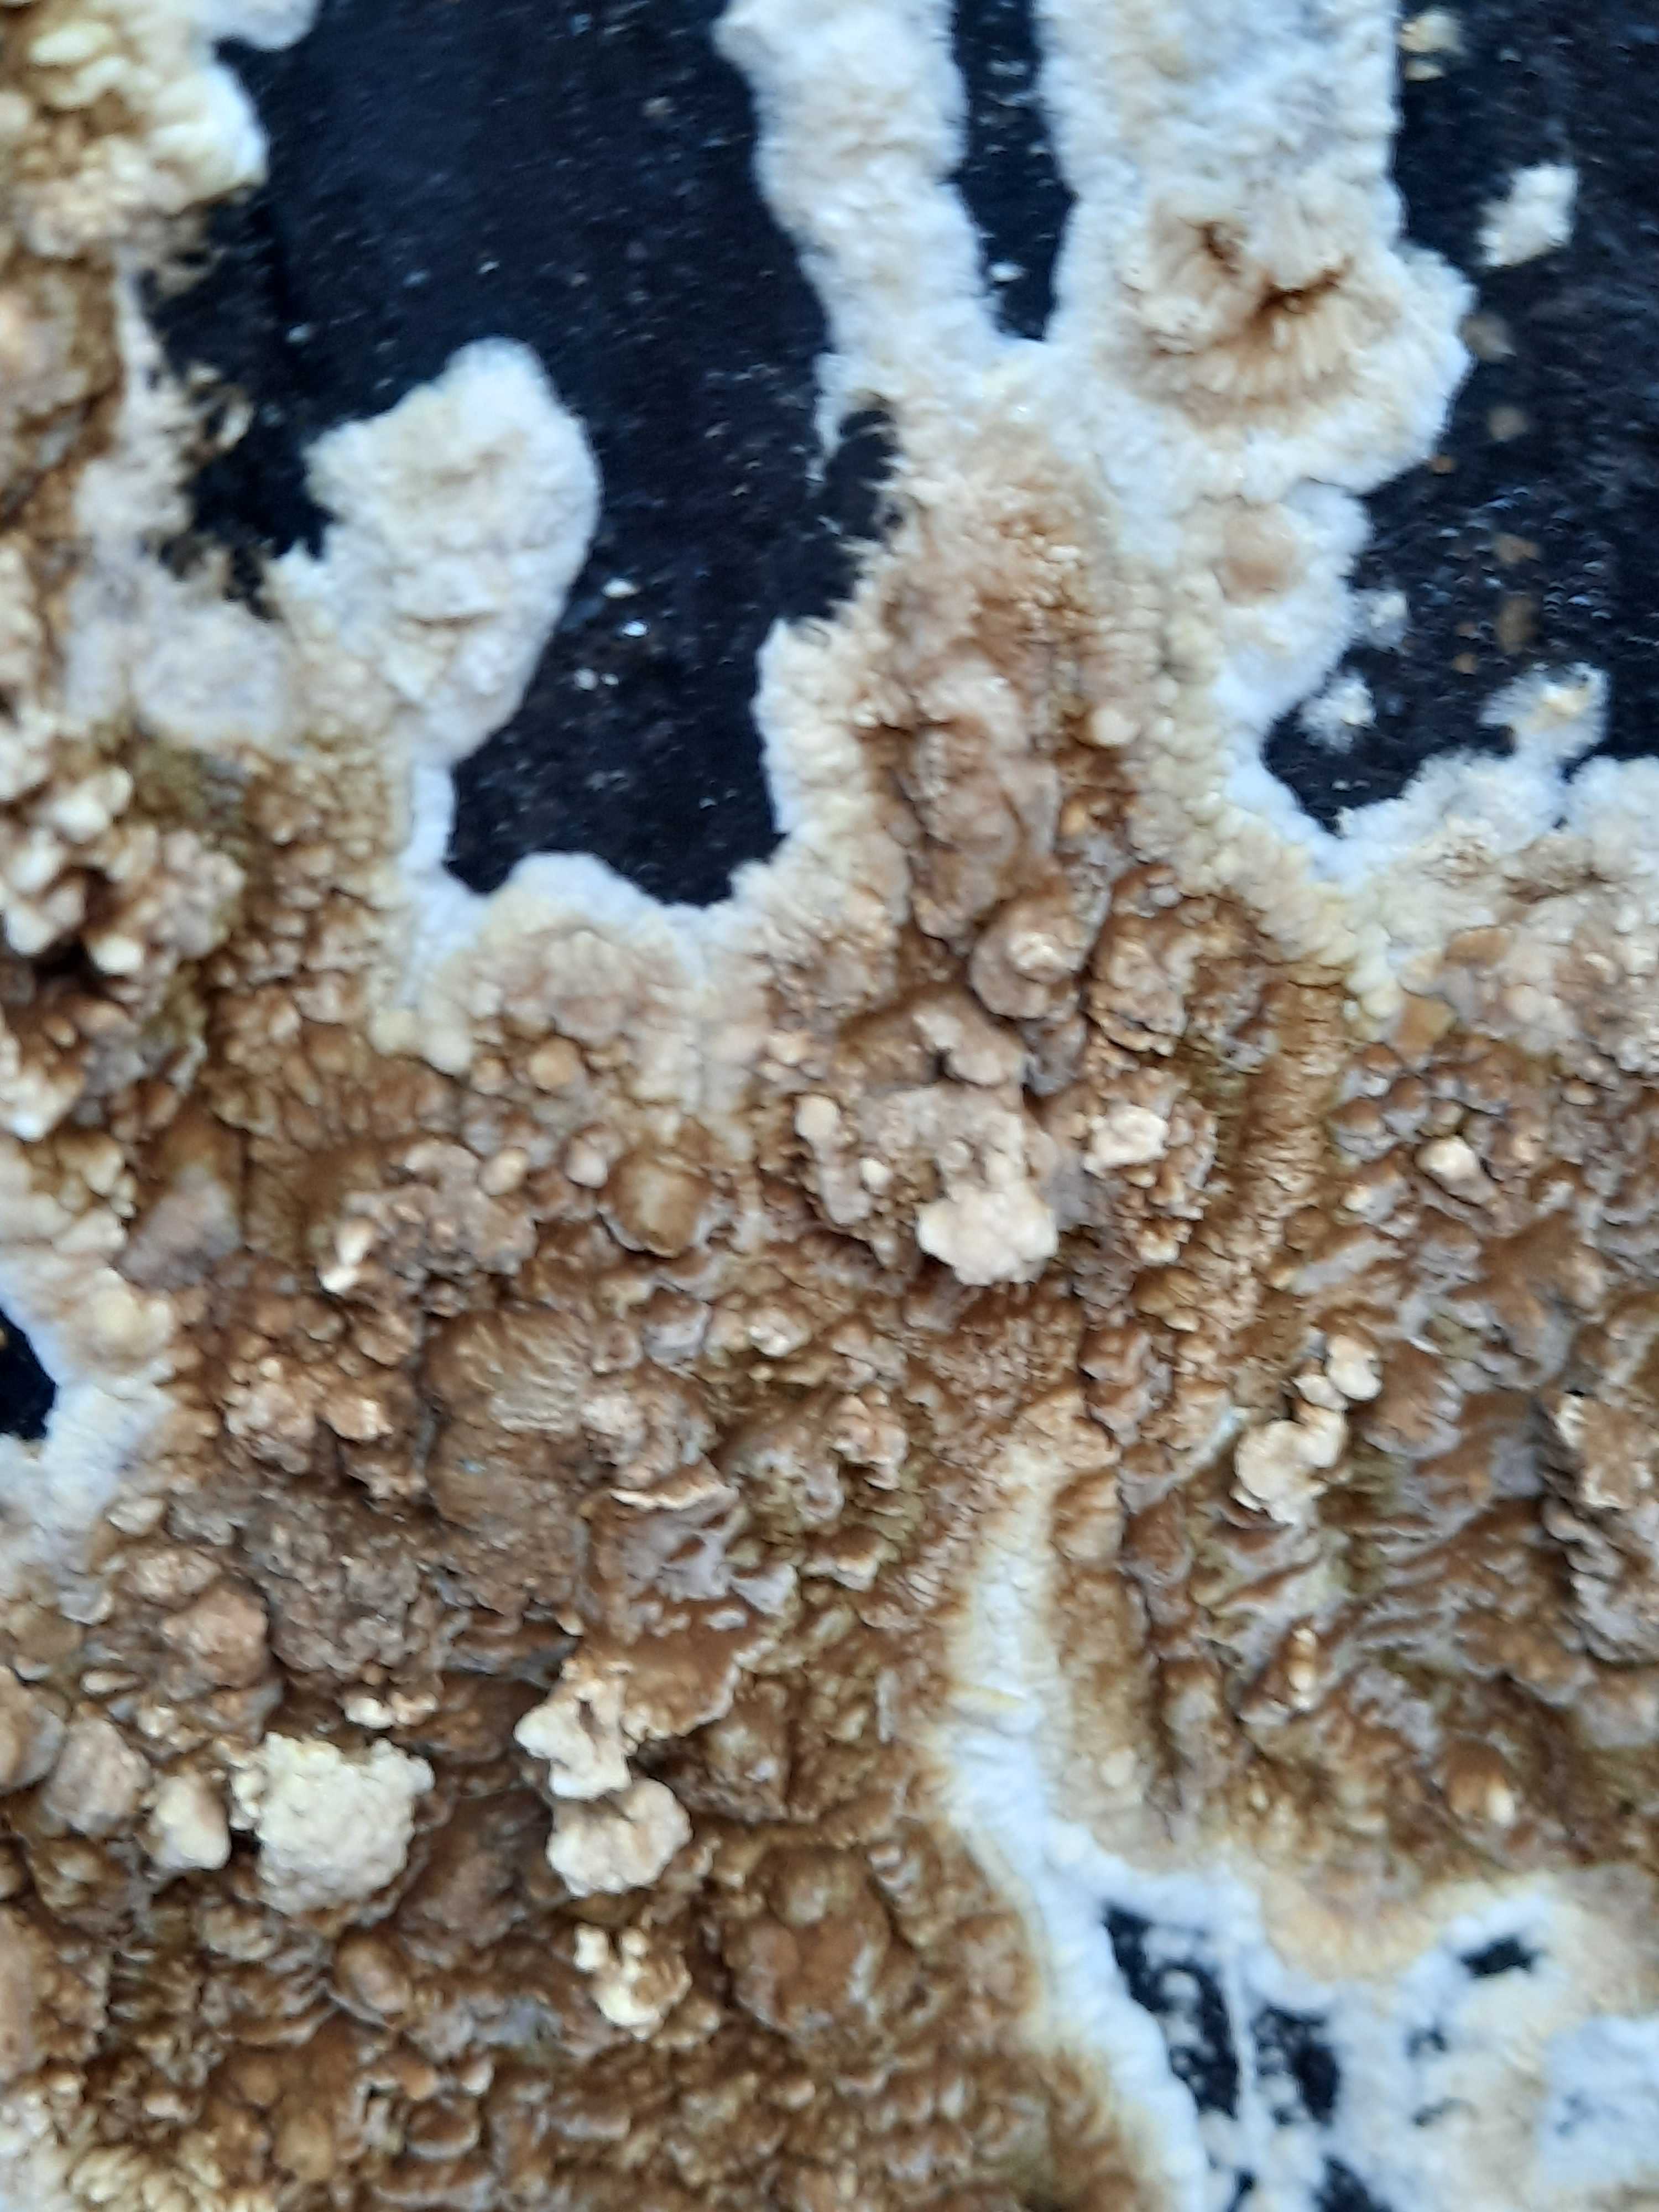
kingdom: Fungi
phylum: Basidiomycota
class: Agaricomycetes
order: Boletales
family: Coniophoraceae
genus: Coniophora
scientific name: Coniophora puteana
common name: gul tømmersvamp
